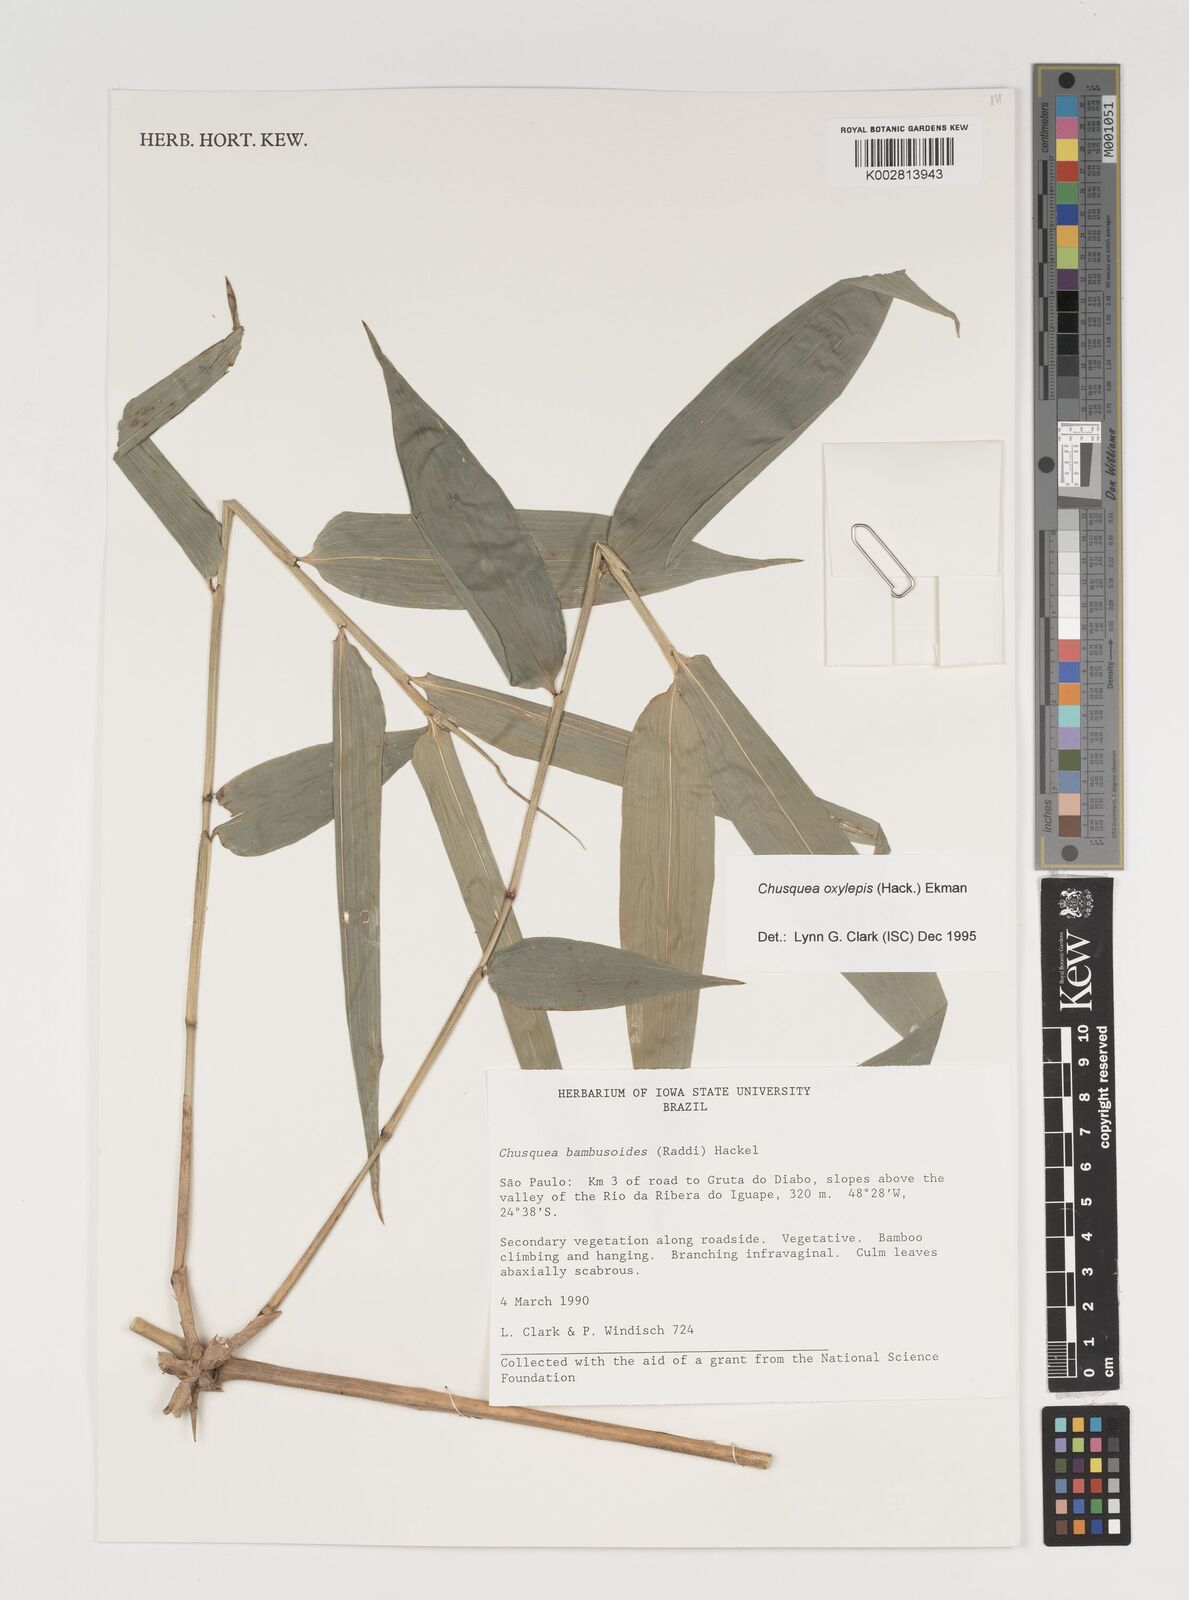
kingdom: Plantae
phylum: Tracheophyta
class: Liliopsida
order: Poales
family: Poaceae
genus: Chusquea
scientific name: Chusquea oxylepis
